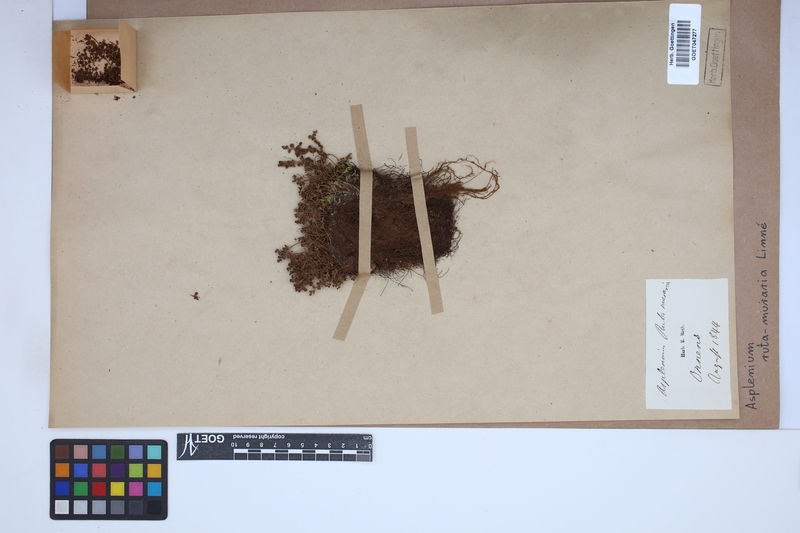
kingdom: Plantae
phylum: Tracheophyta
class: Polypodiopsida
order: Polypodiales
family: Aspleniaceae
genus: Asplenium
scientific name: Asplenium ruta-muraria
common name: Wall-rue
